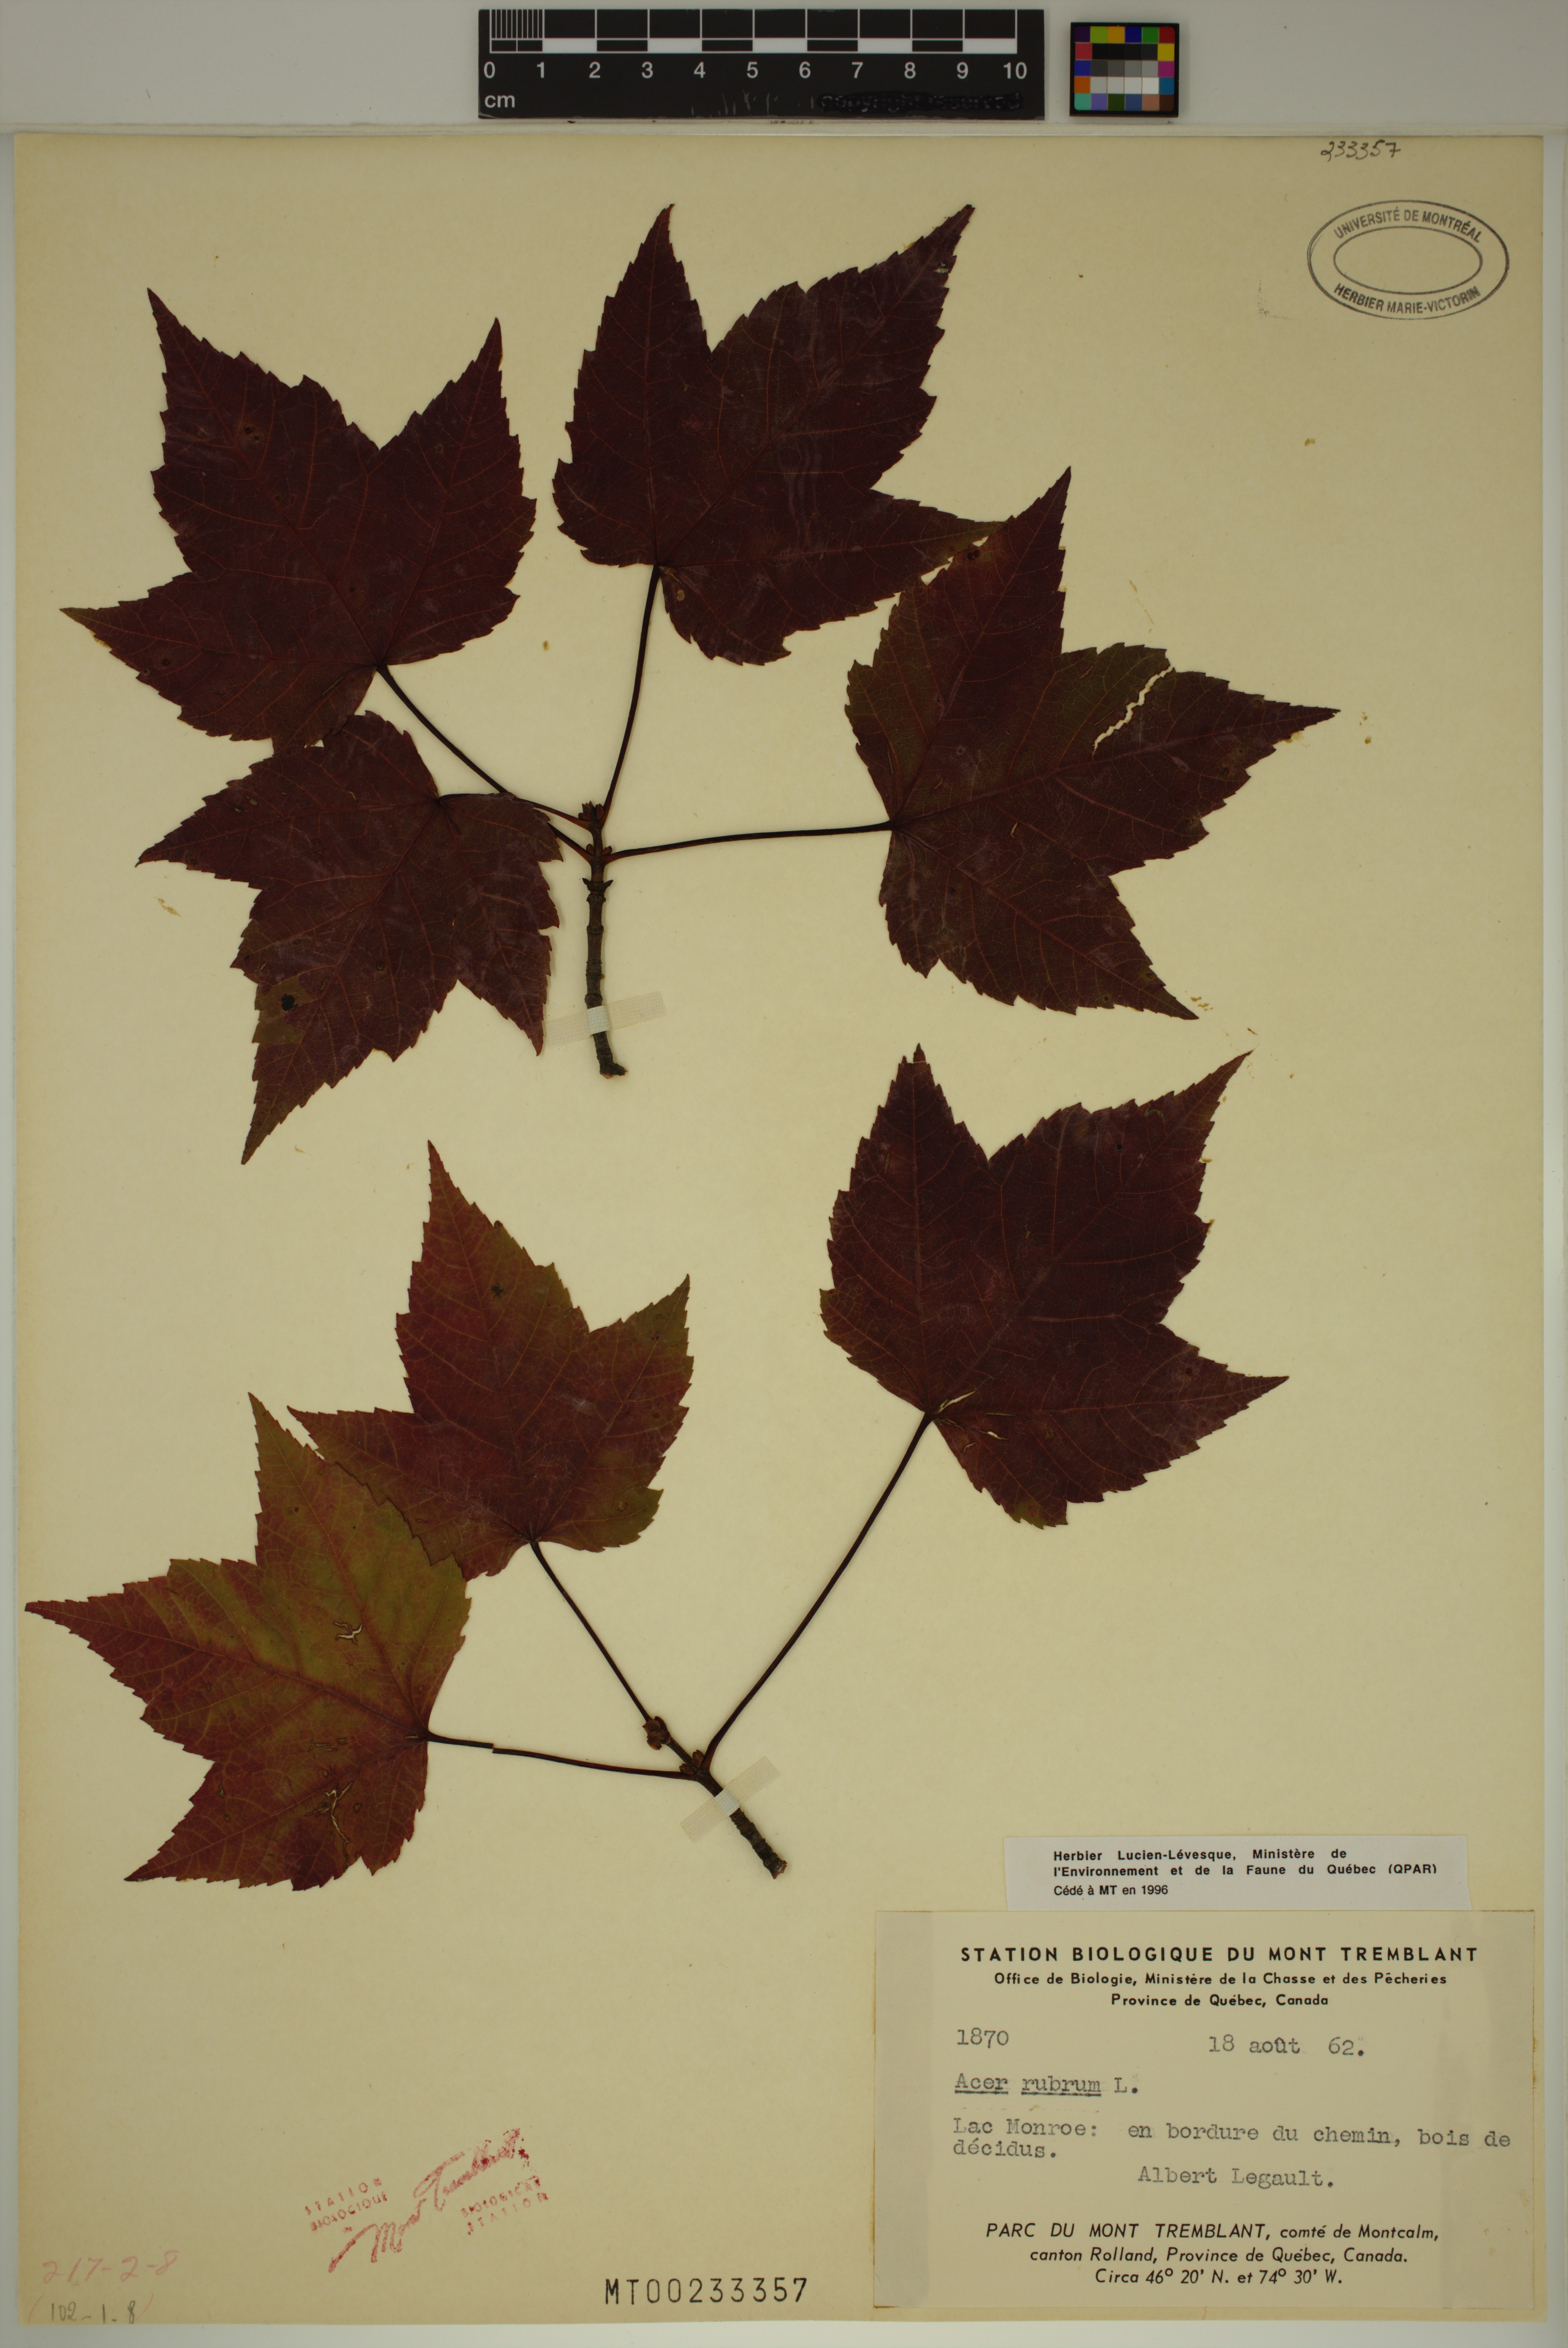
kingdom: Plantae
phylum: Tracheophyta
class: Magnoliopsida
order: Sapindales
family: Sapindaceae
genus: Acer
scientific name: Acer rubrum
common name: Red maple
